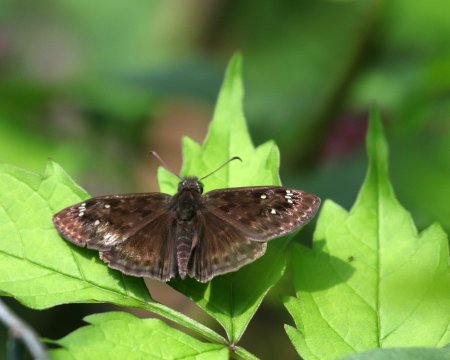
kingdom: Animalia
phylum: Arthropoda
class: Insecta
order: Lepidoptera
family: Hesperiidae
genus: Gesta
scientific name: Gesta
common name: Horace's Duskywing
